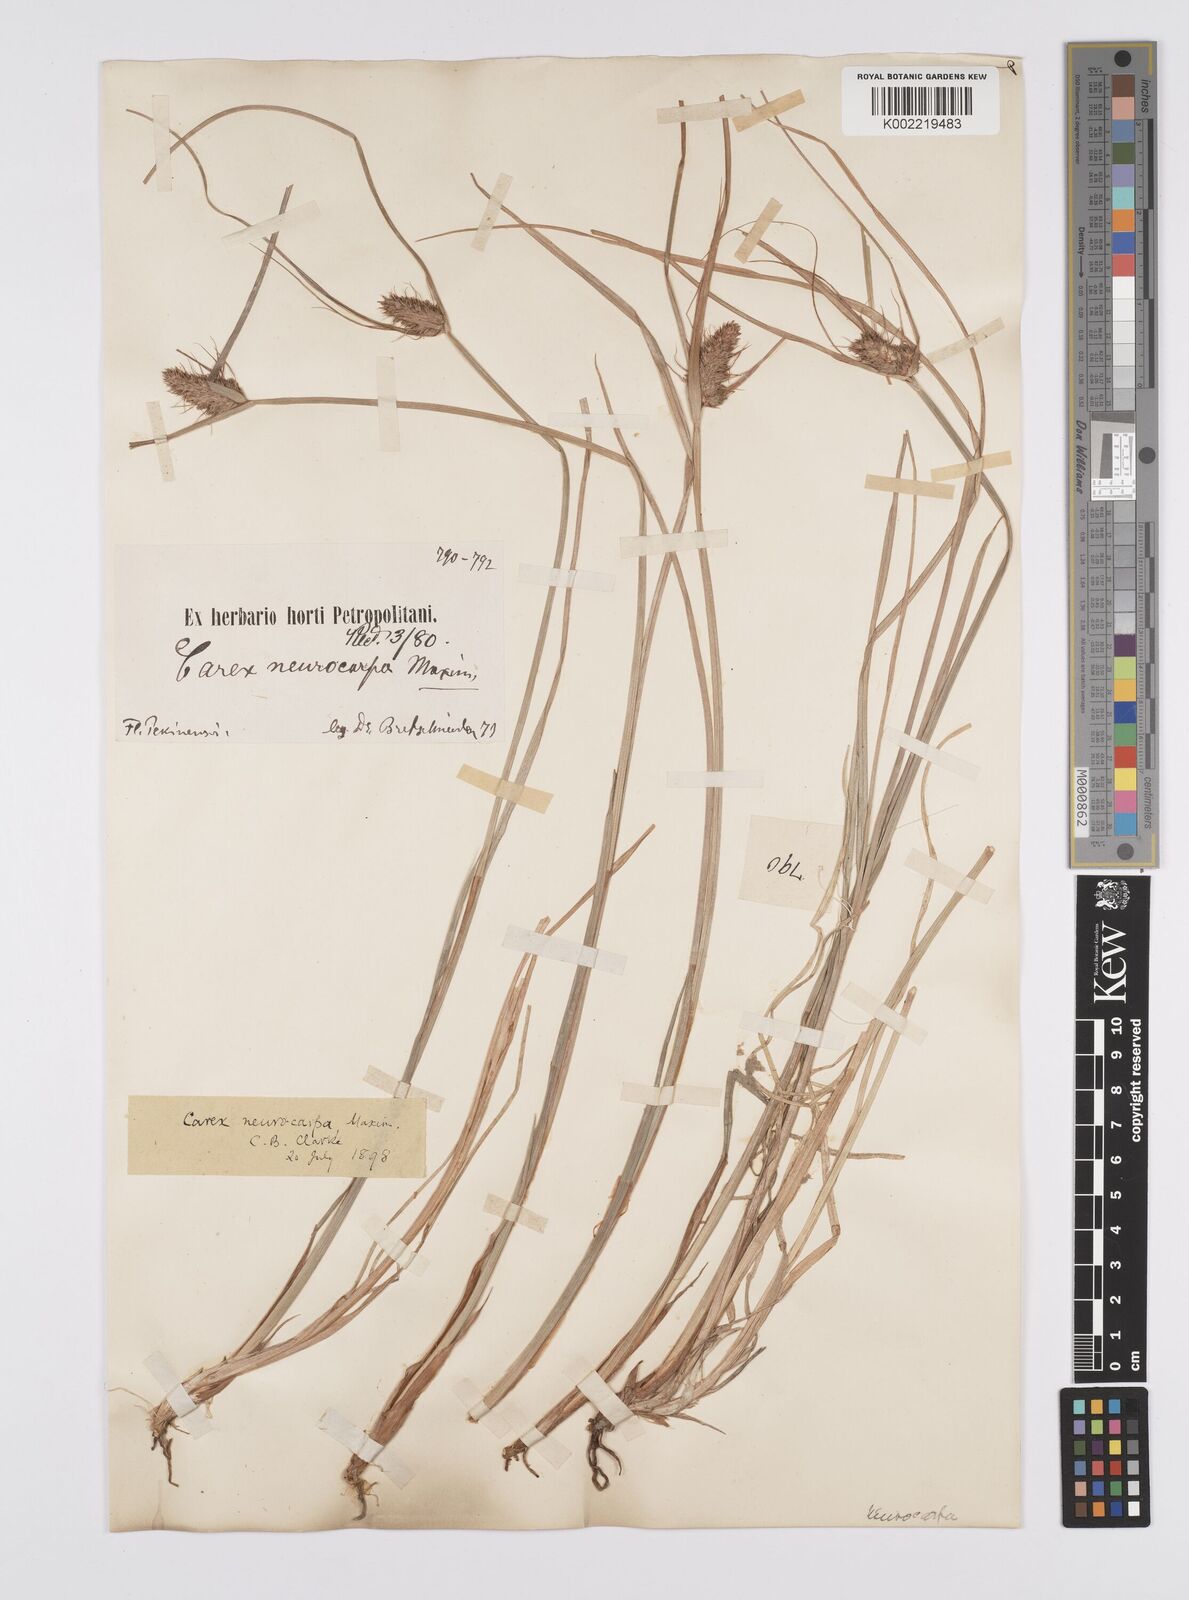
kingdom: Plantae
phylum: Tracheophyta
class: Liliopsida
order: Poales
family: Cyperaceae
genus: Carex
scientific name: Carex neurocarpa
